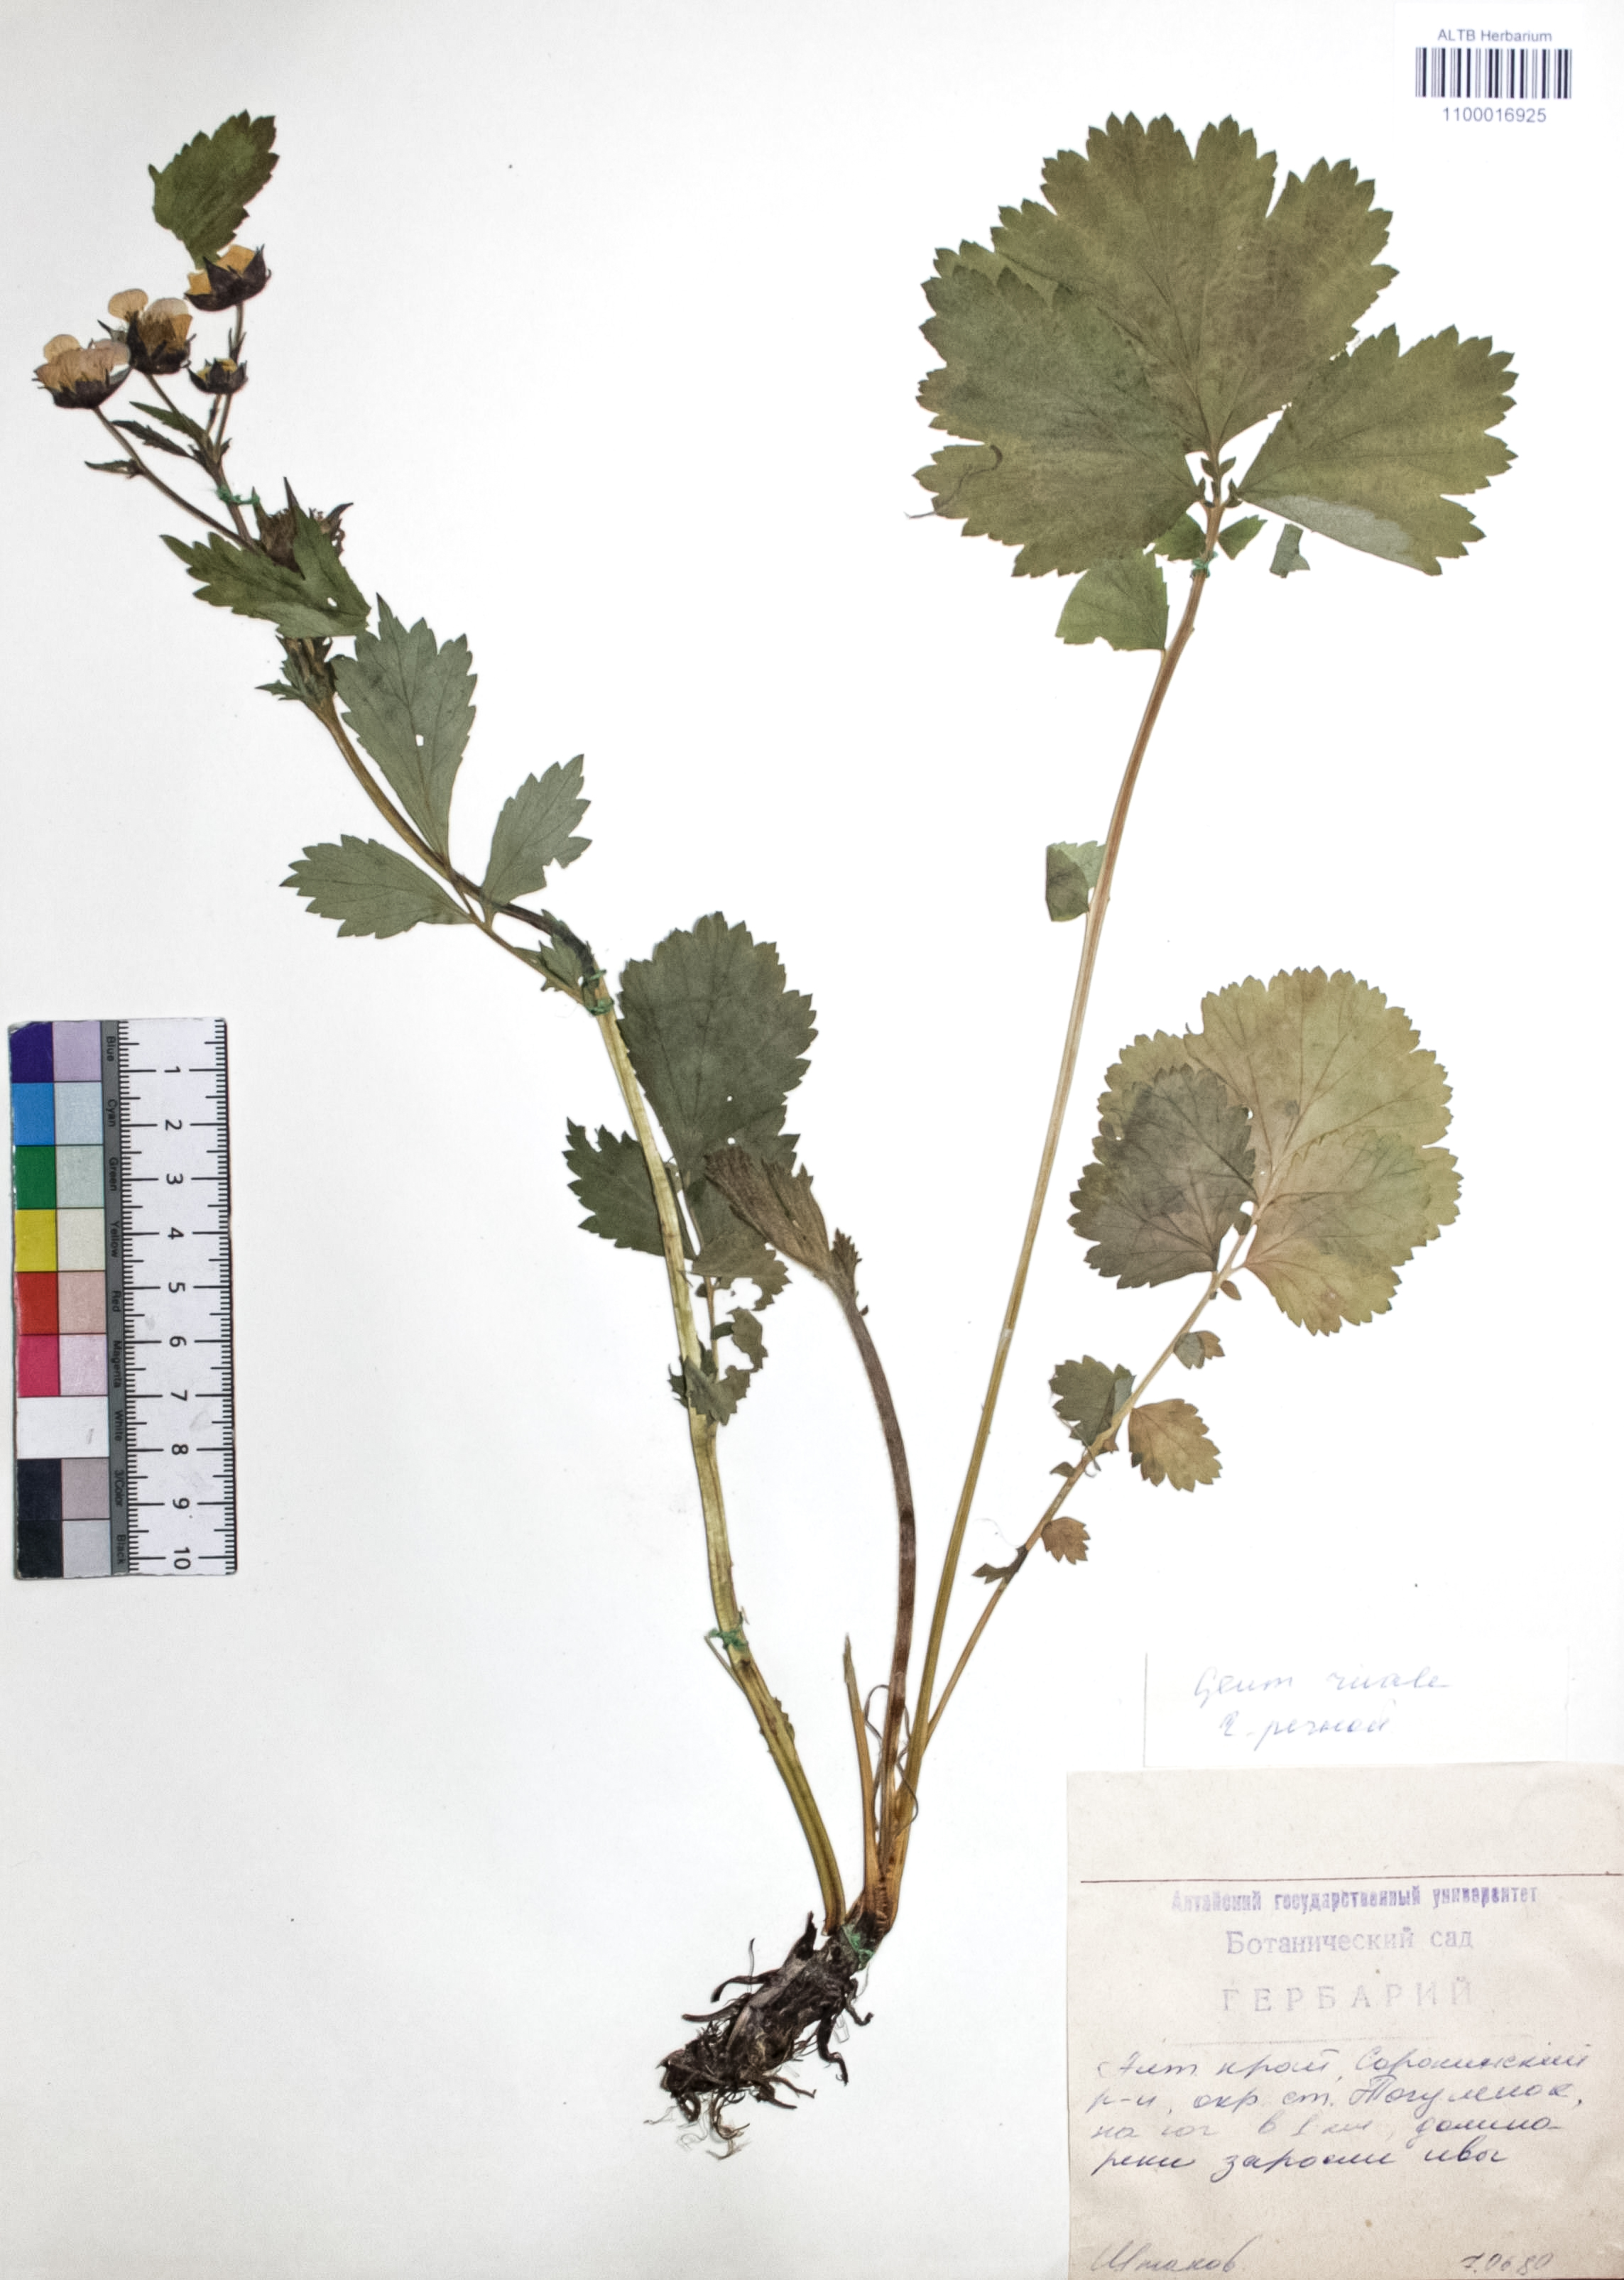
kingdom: Plantae
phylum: Tracheophyta
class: Magnoliopsida
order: Rosales
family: Rosaceae
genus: Geum
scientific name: Geum rivale
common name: Water avens
